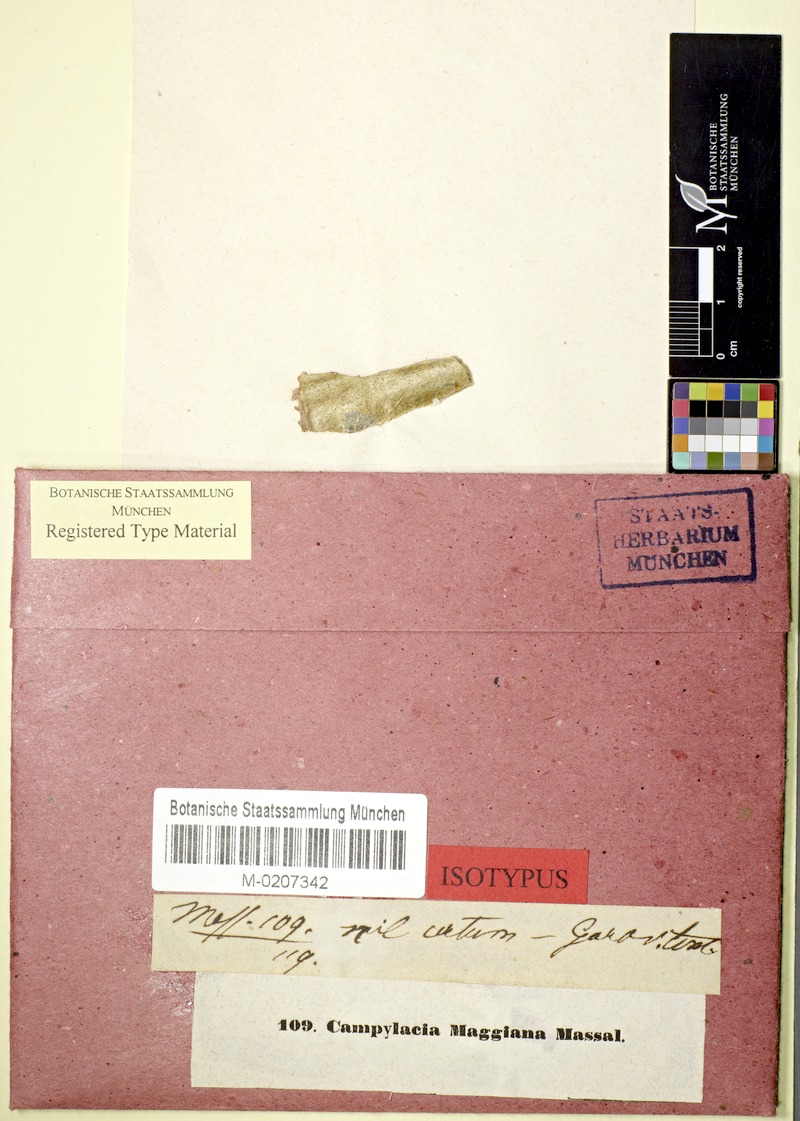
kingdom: Fungi
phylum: Ascomycota
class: Dothideomycetes
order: Pleosporales
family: Naetrocymbaceae
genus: Leptorhaphis
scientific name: Leptorhaphis maggiana
